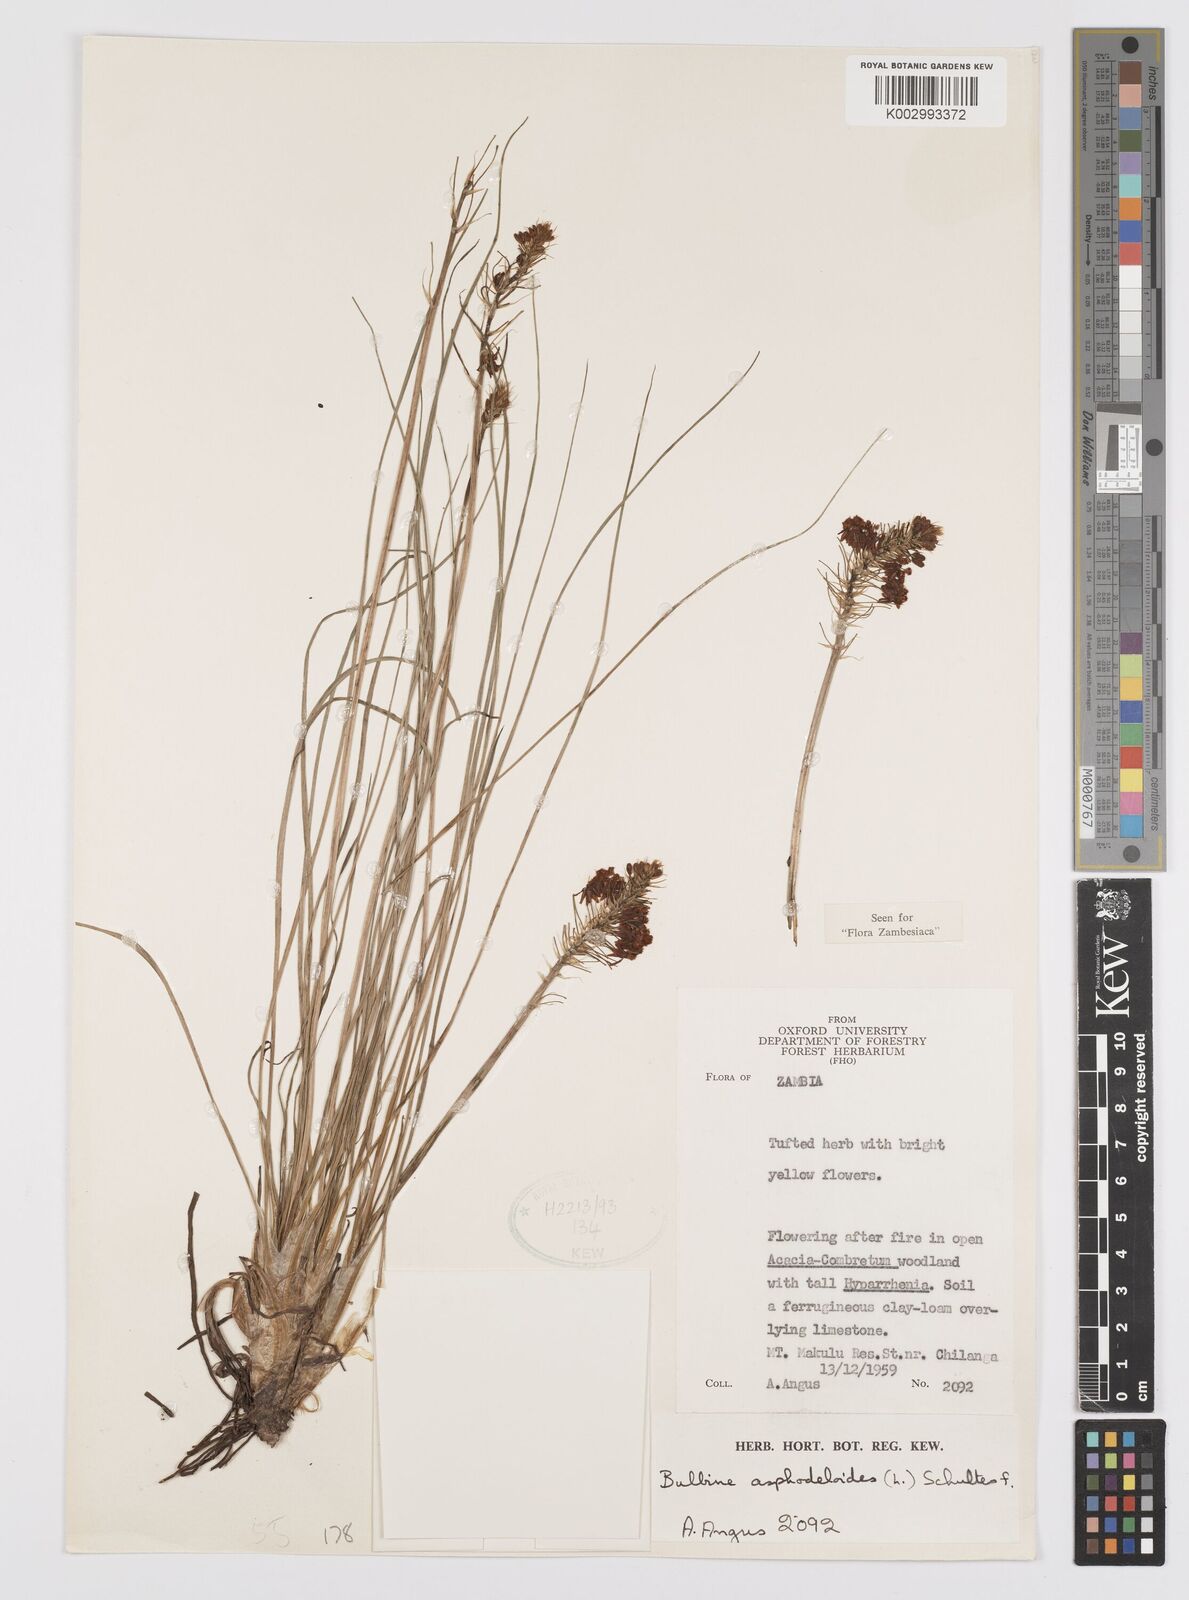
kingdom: Plantae
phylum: Tracheophyta
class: Liliopsida
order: Asparagales
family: Asphodelaceae
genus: Bulbine
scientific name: Bulbine abyssinica
